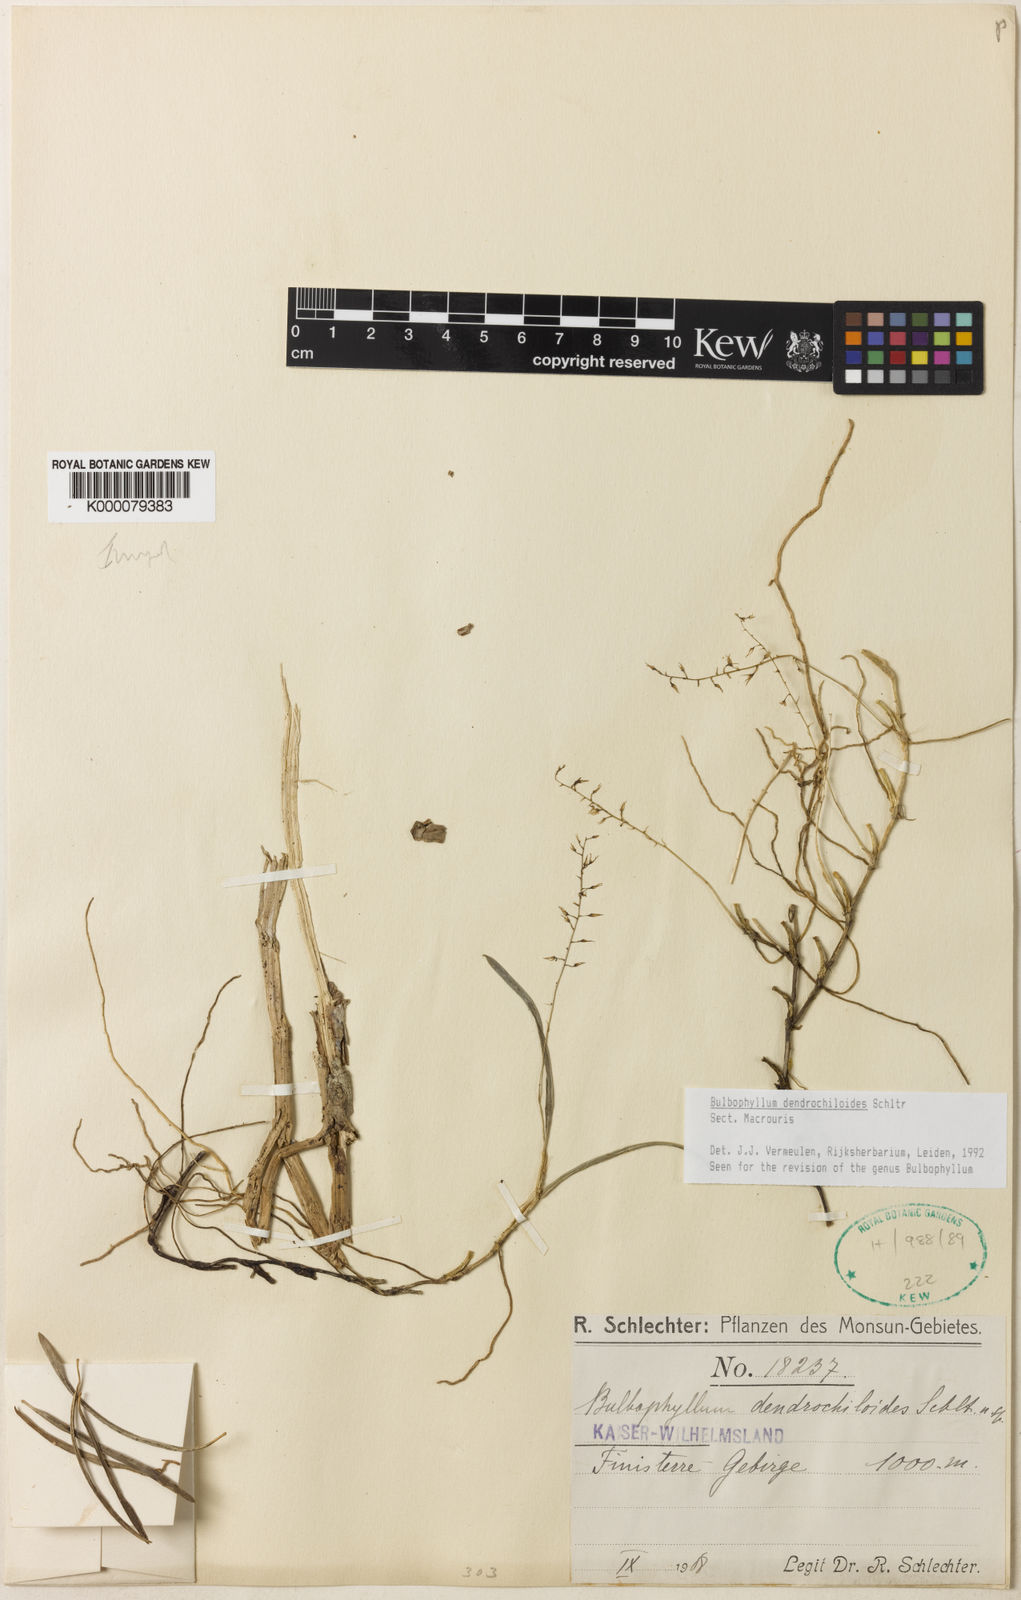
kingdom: Plantae
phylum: Tracheophyta
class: Liliopsida
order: Asparagales
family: Orchidaceae
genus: Bulbophyllum
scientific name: Bulbophyllum
